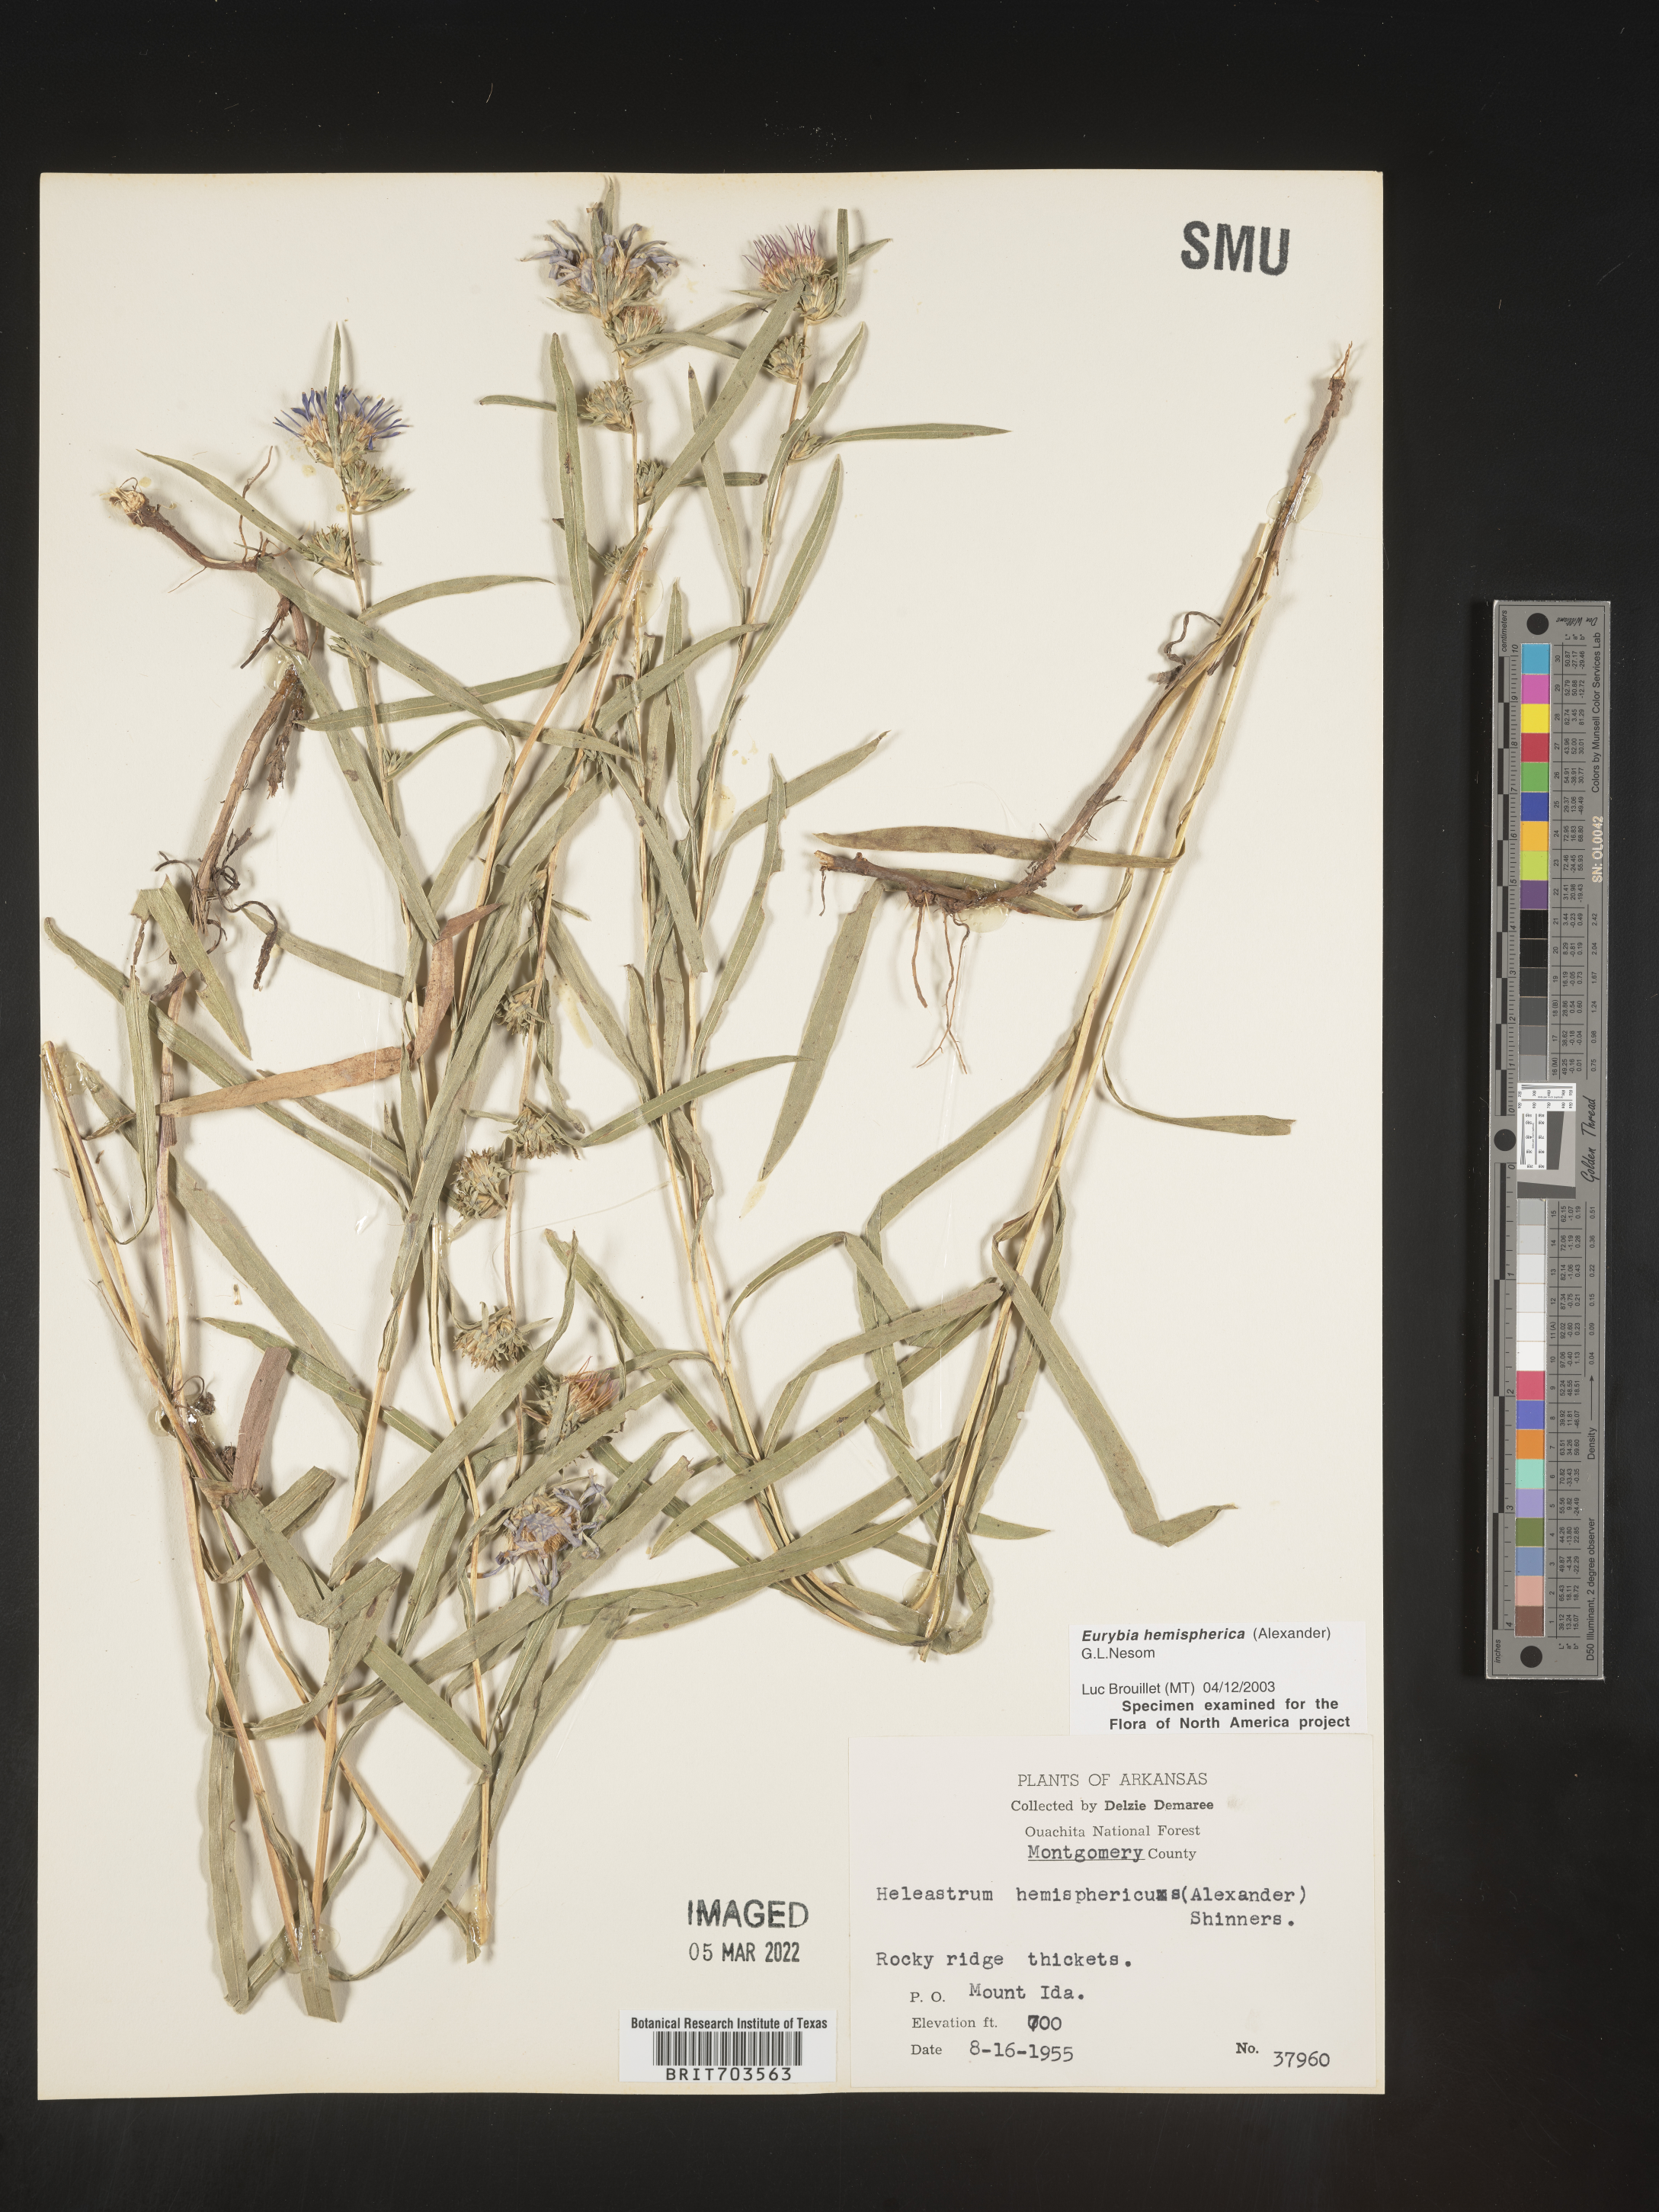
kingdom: Plantae
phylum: Tracheophyta
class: Magnoliopsida
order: Asterales
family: Asteraceae
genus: Eurybia
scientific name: Eurybia hemispherica
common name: Showy aster
